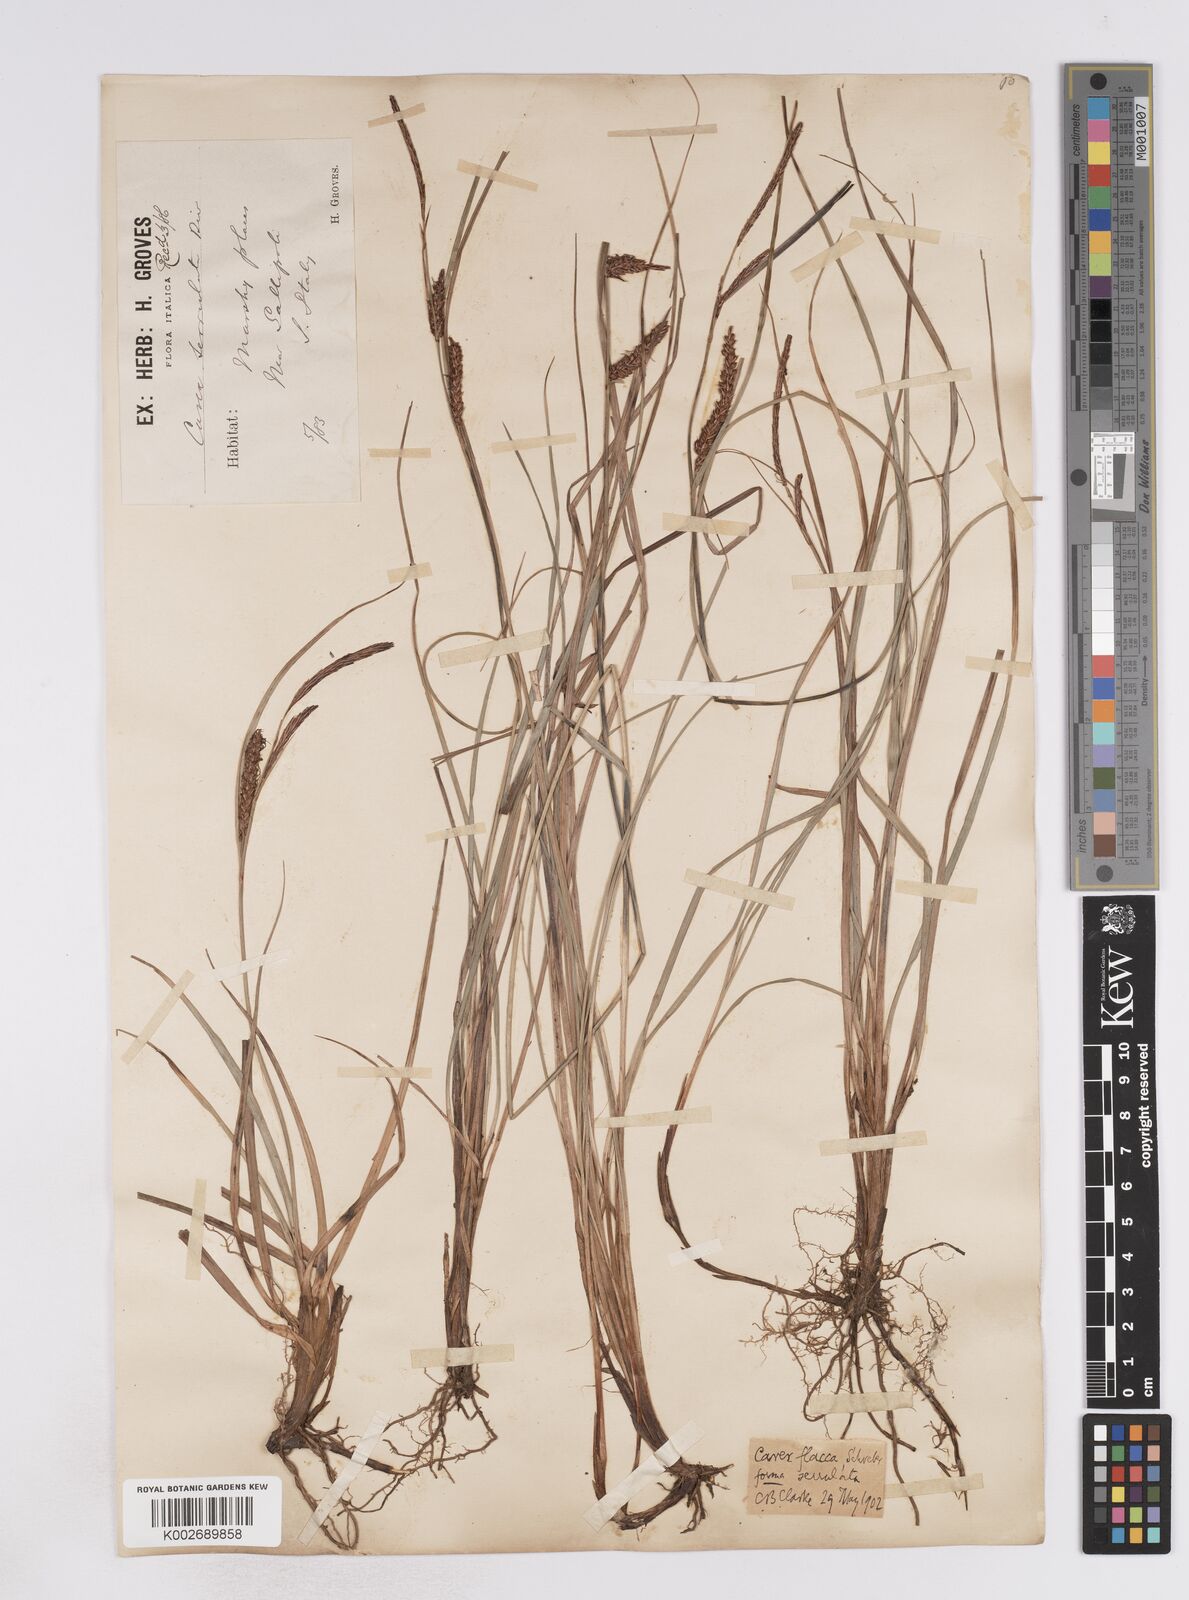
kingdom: Plantae
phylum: Tracheophyta
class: Liliopsida
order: Poales
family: Cyperaceae
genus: Carex
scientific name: Carex flacca
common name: Glaucous sedge
